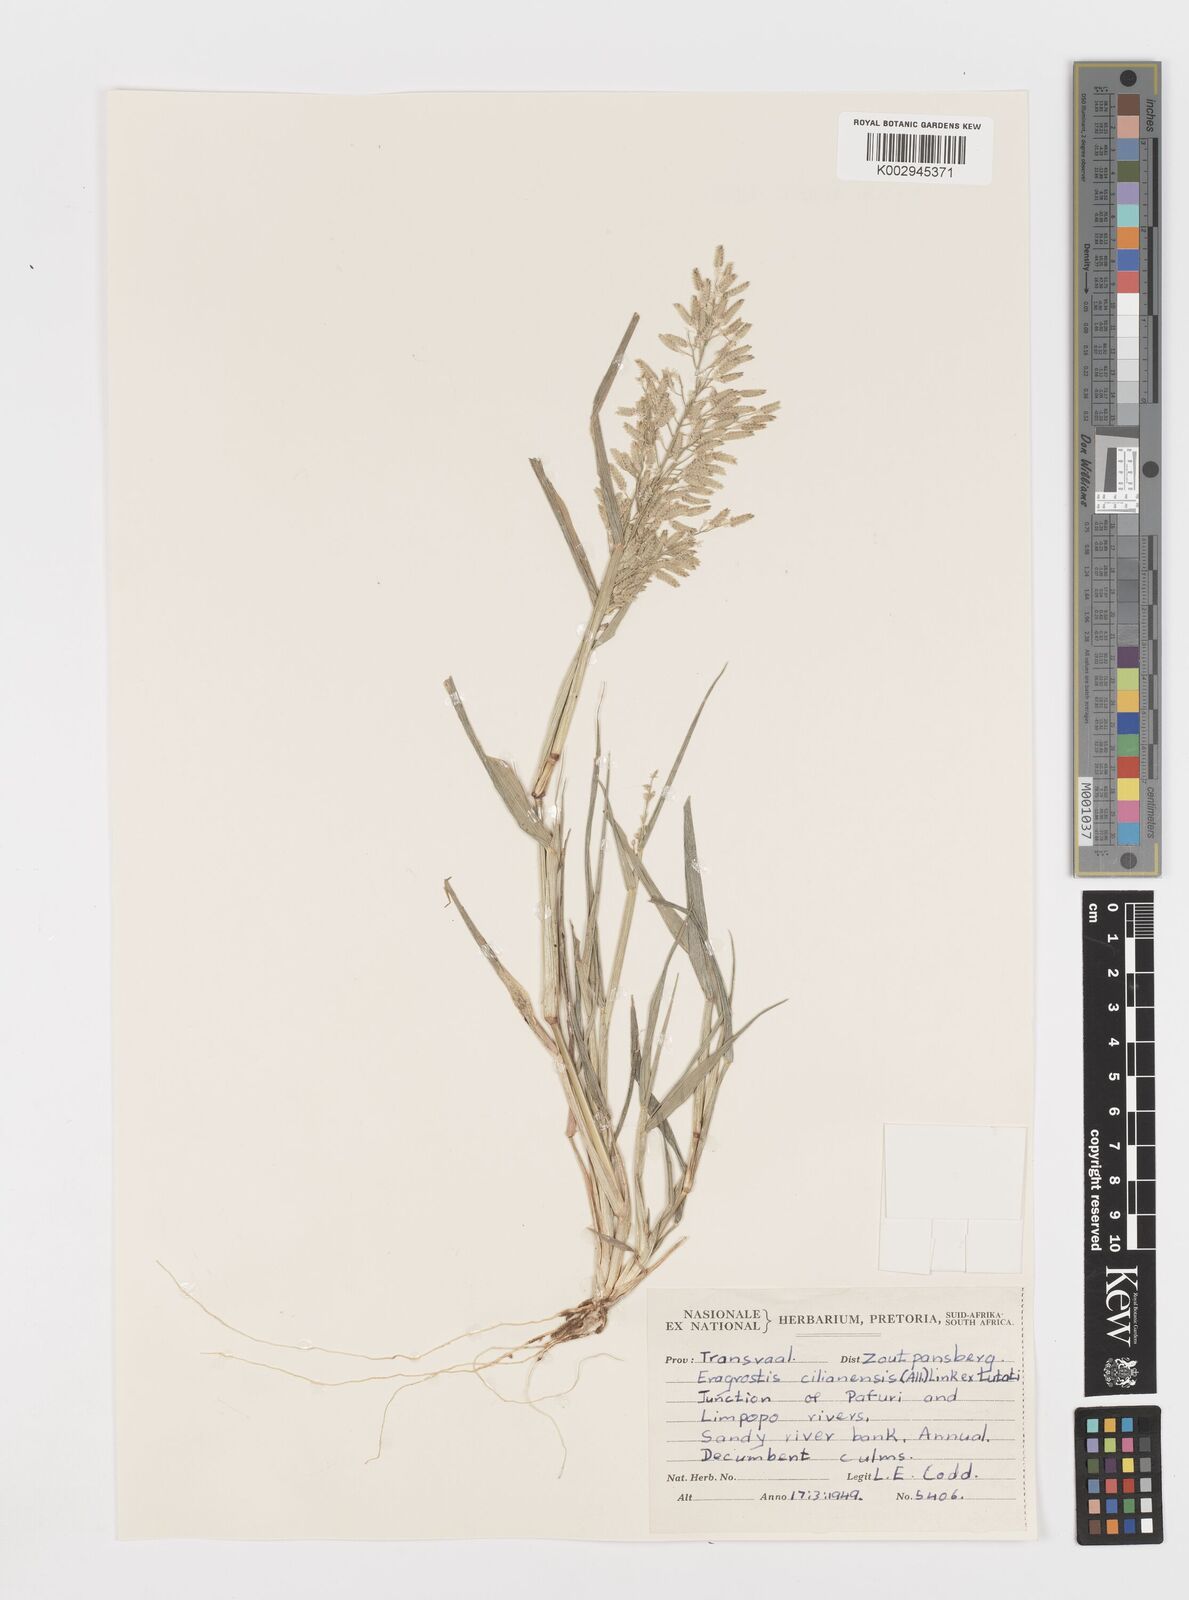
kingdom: Plantae
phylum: Tracheophyta
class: Liliopsida
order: Poales
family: Poaceae
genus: Eragrostis
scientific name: Eragrostis cilianensis
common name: Stinkgrass
